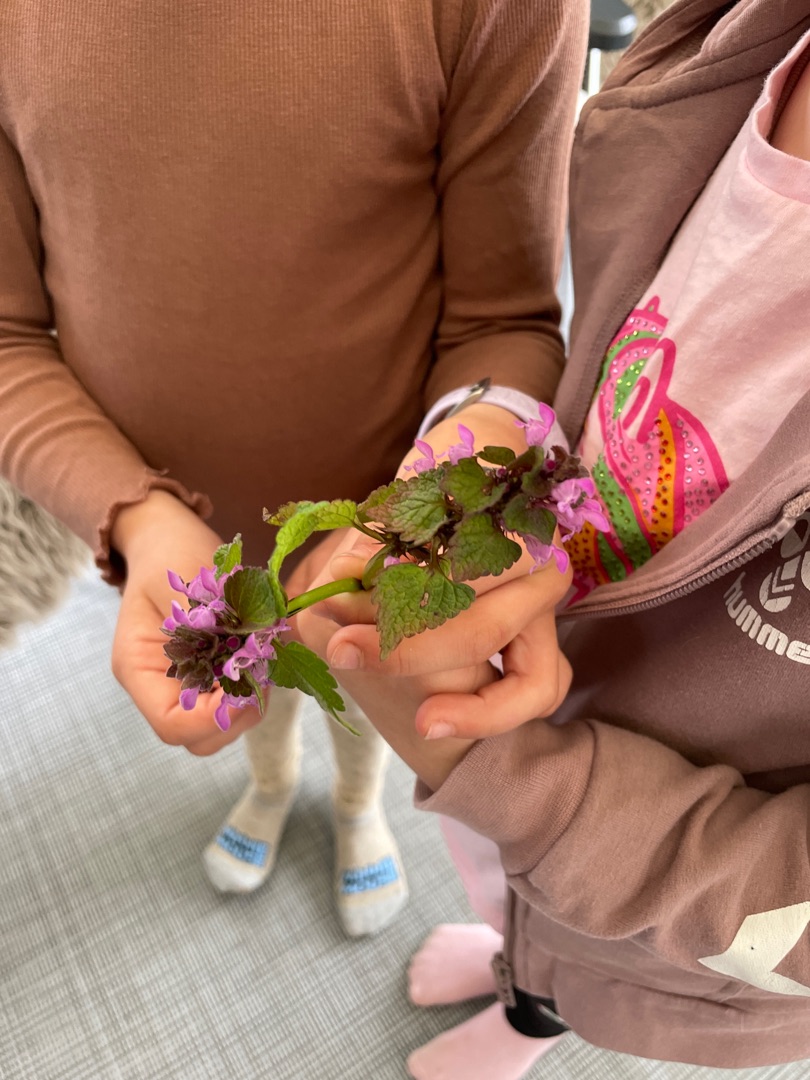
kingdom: Plantae
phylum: Tracheophyta
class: Magnoliopsida
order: Lamiales
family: Lamiaceae
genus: Lamium
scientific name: Lamium purpureum
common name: Rød tvetand
